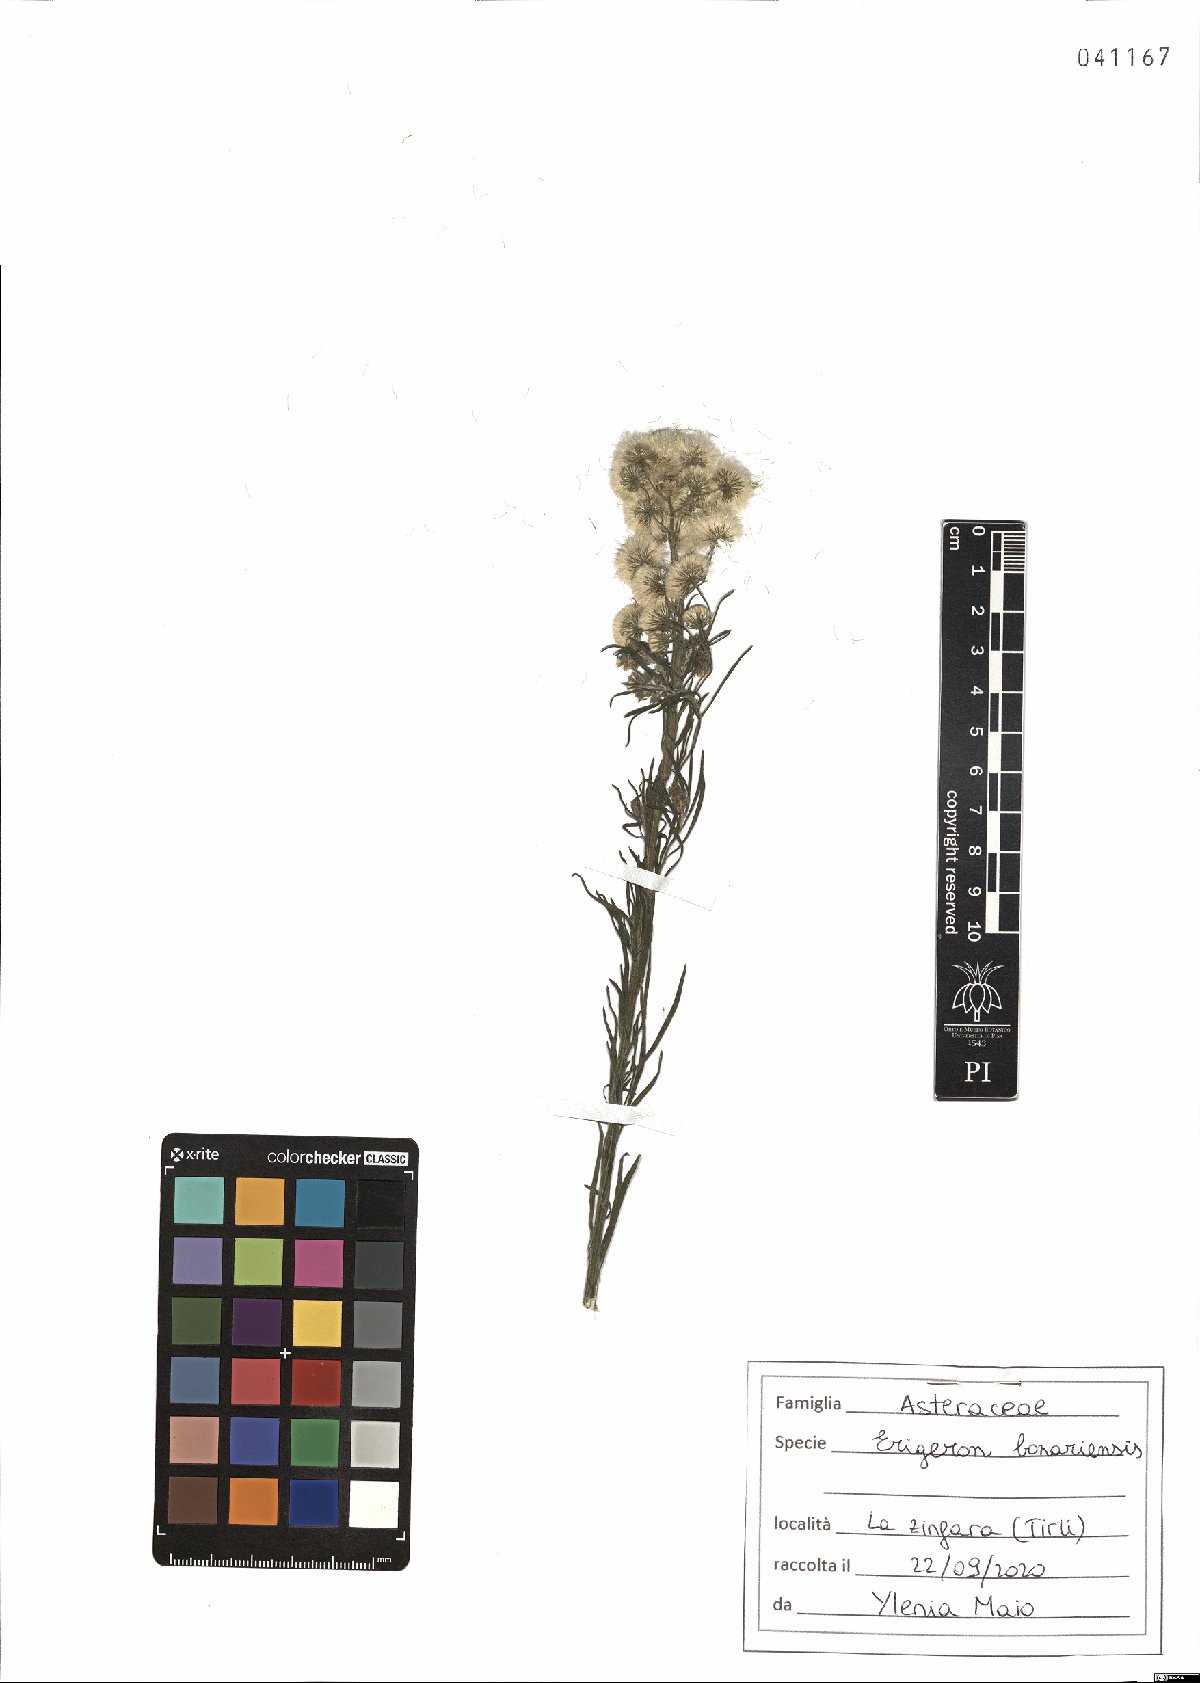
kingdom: Plantae
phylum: Tracheophyta
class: Magnoliopsida
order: Asterales
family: Asteraceae
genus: Erigeron
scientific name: Erigeron bonariensis
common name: Argentine fleabane
